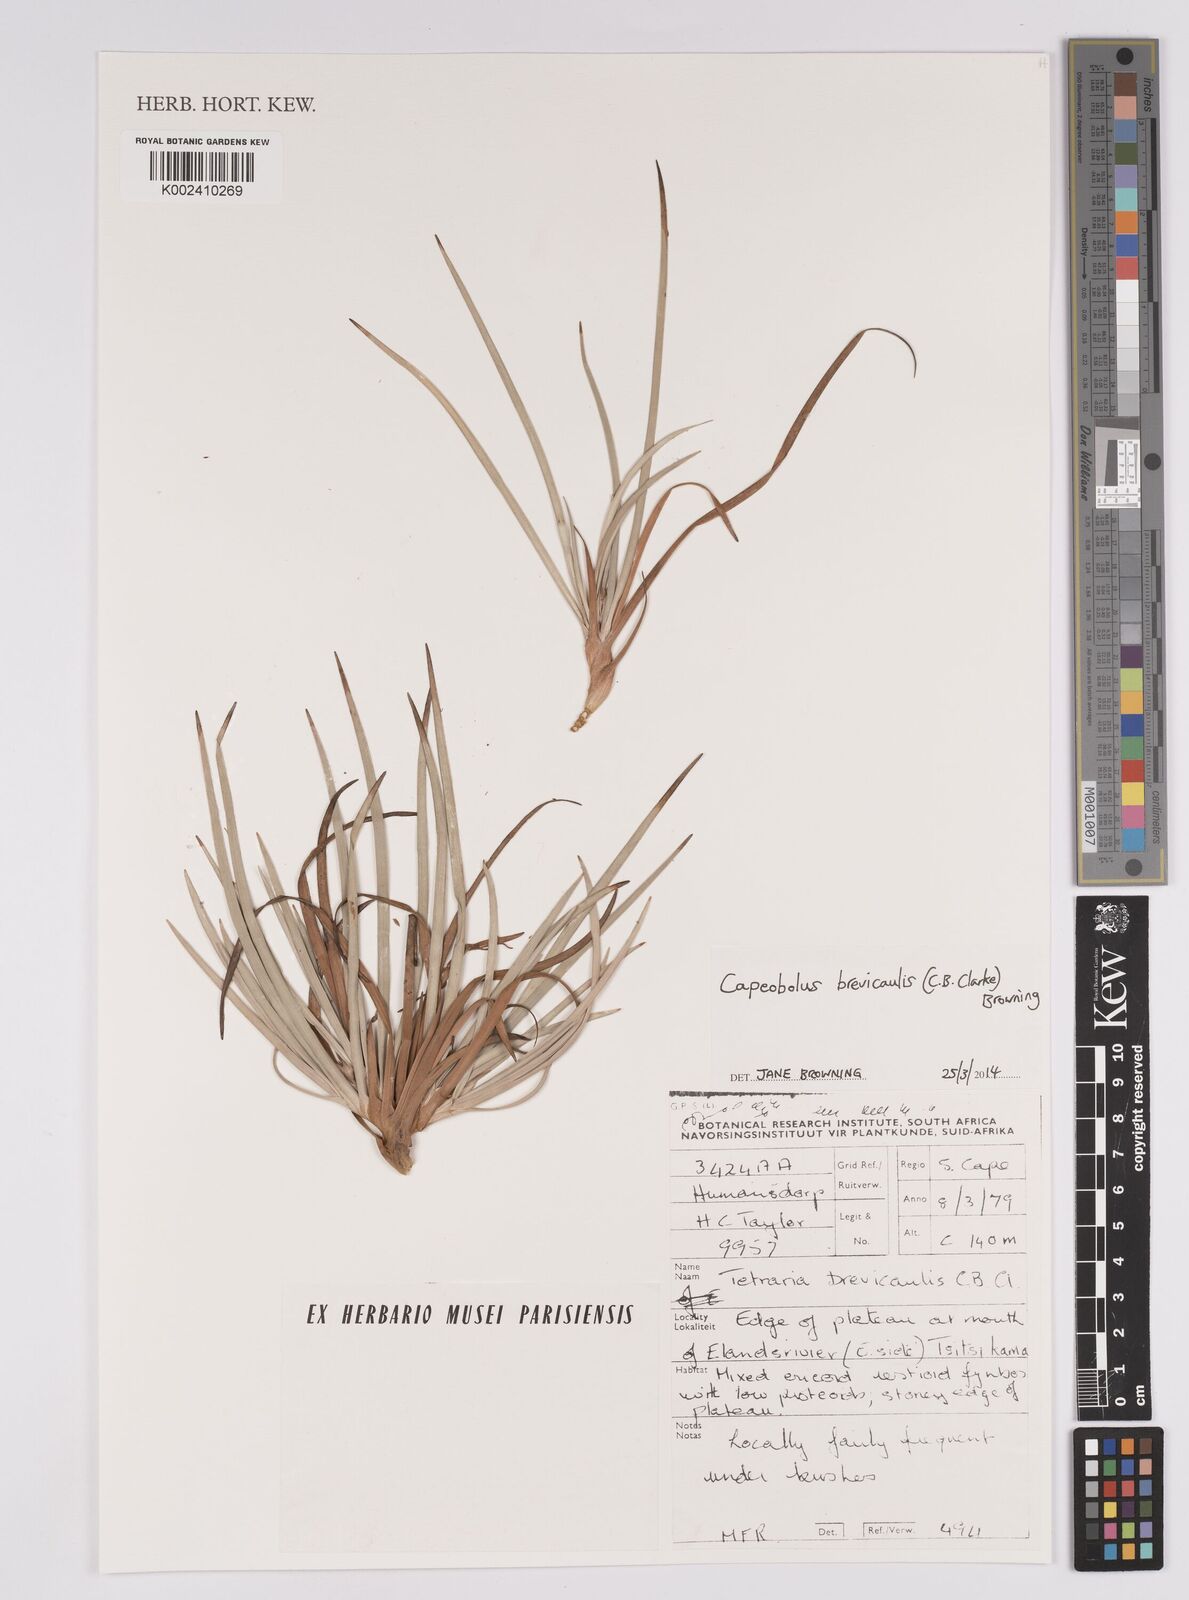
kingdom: Plantae
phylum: Tracheophyta
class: Liliopsida
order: Poales
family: Cyperaceae
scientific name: Cyperaceae
